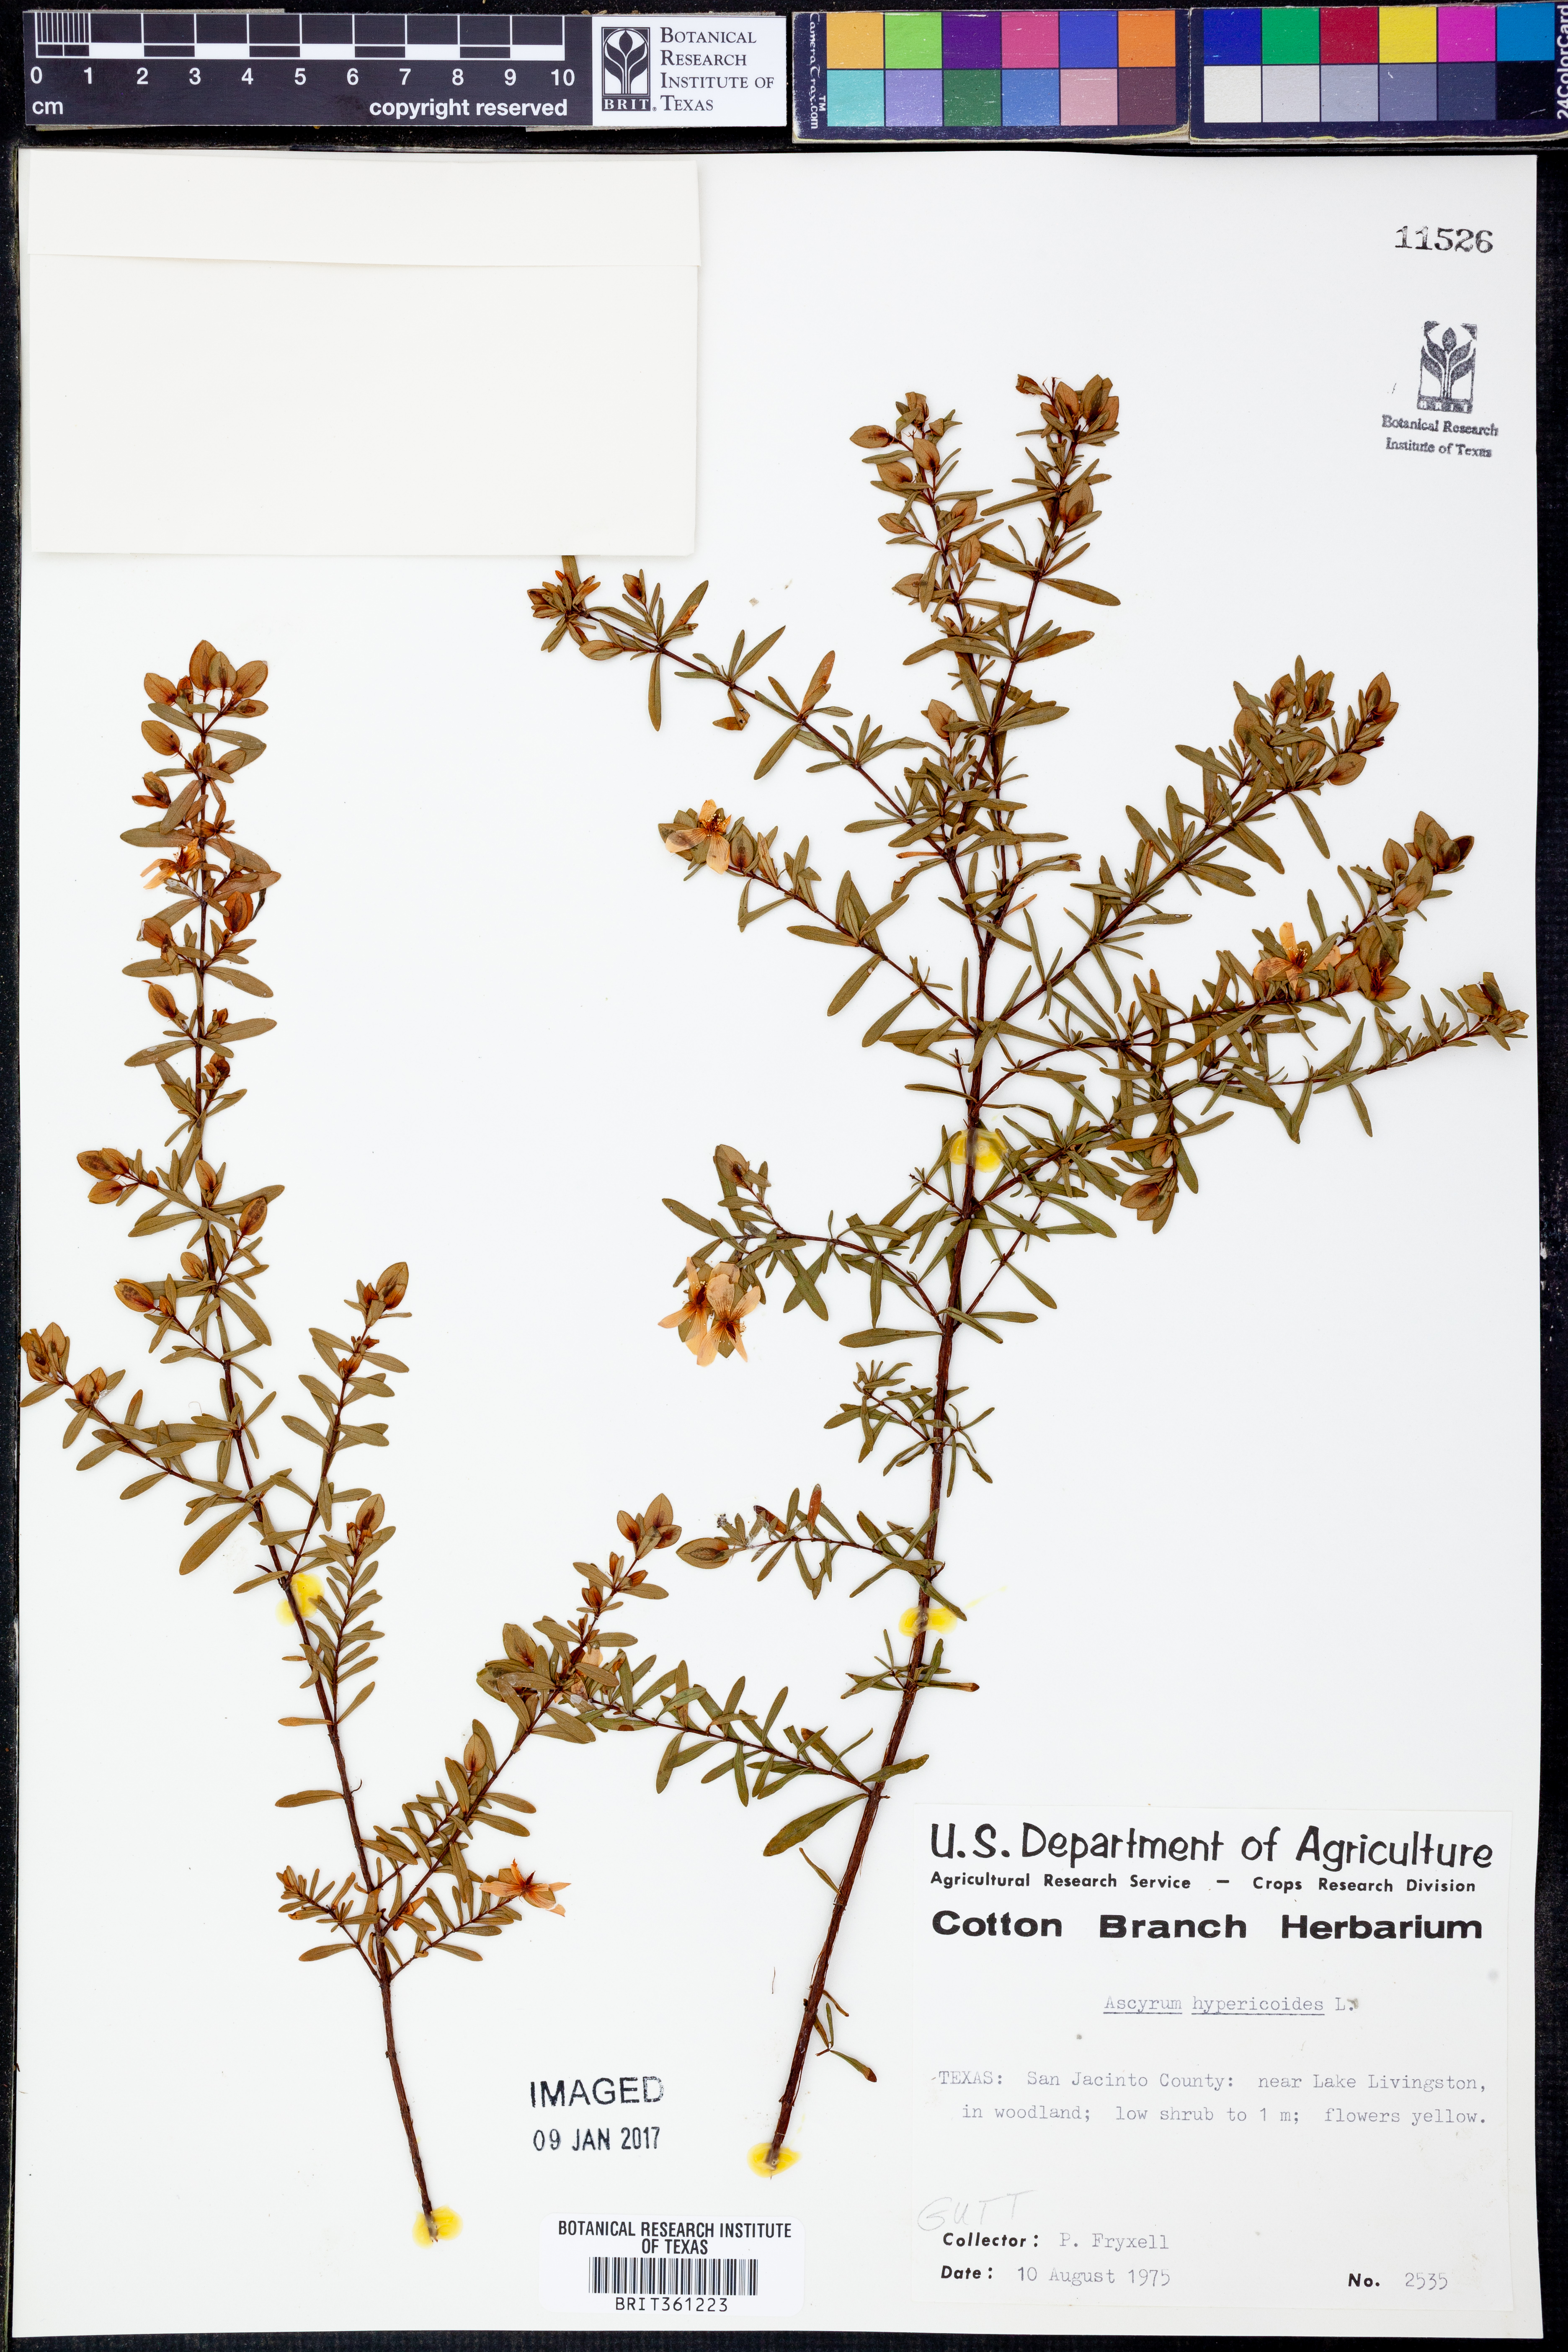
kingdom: Plantae
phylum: Tracheophyta
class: Magnoliopsida
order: Malpighiales
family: Hypericaceae
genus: Hypericum
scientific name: Hypericum hypericoides
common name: St. andrew's cross
